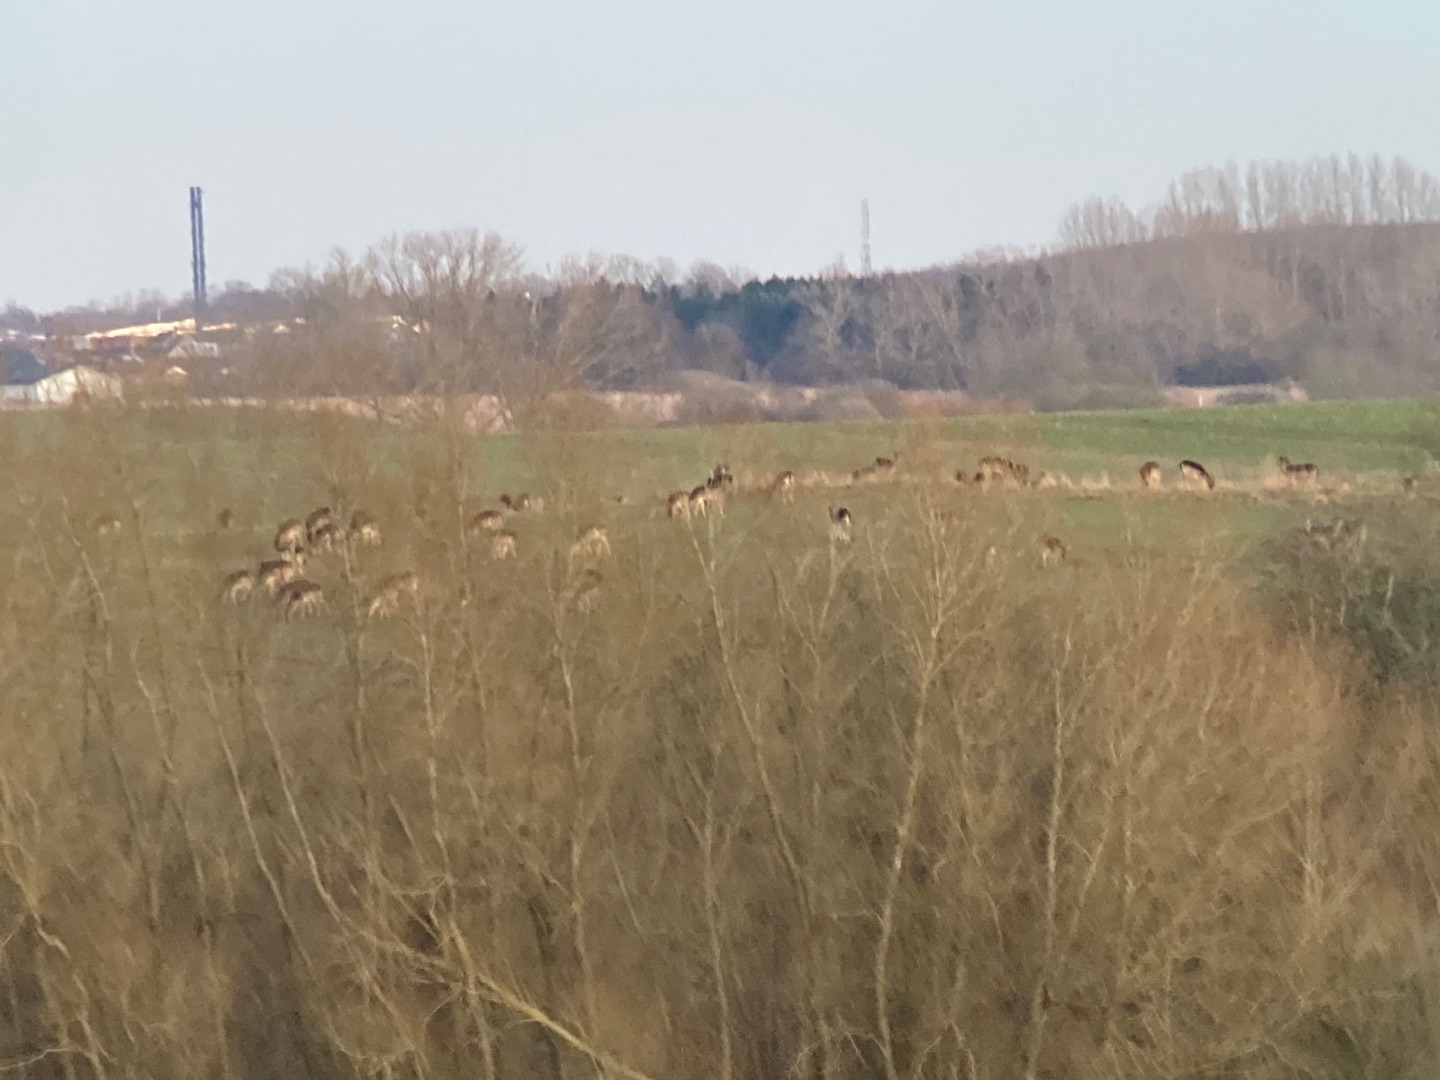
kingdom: Animalia
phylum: Chordata
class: Mammalia
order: Artiodactyla
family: Cervidae
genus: Dama
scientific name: Dama dama
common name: Dådyr
